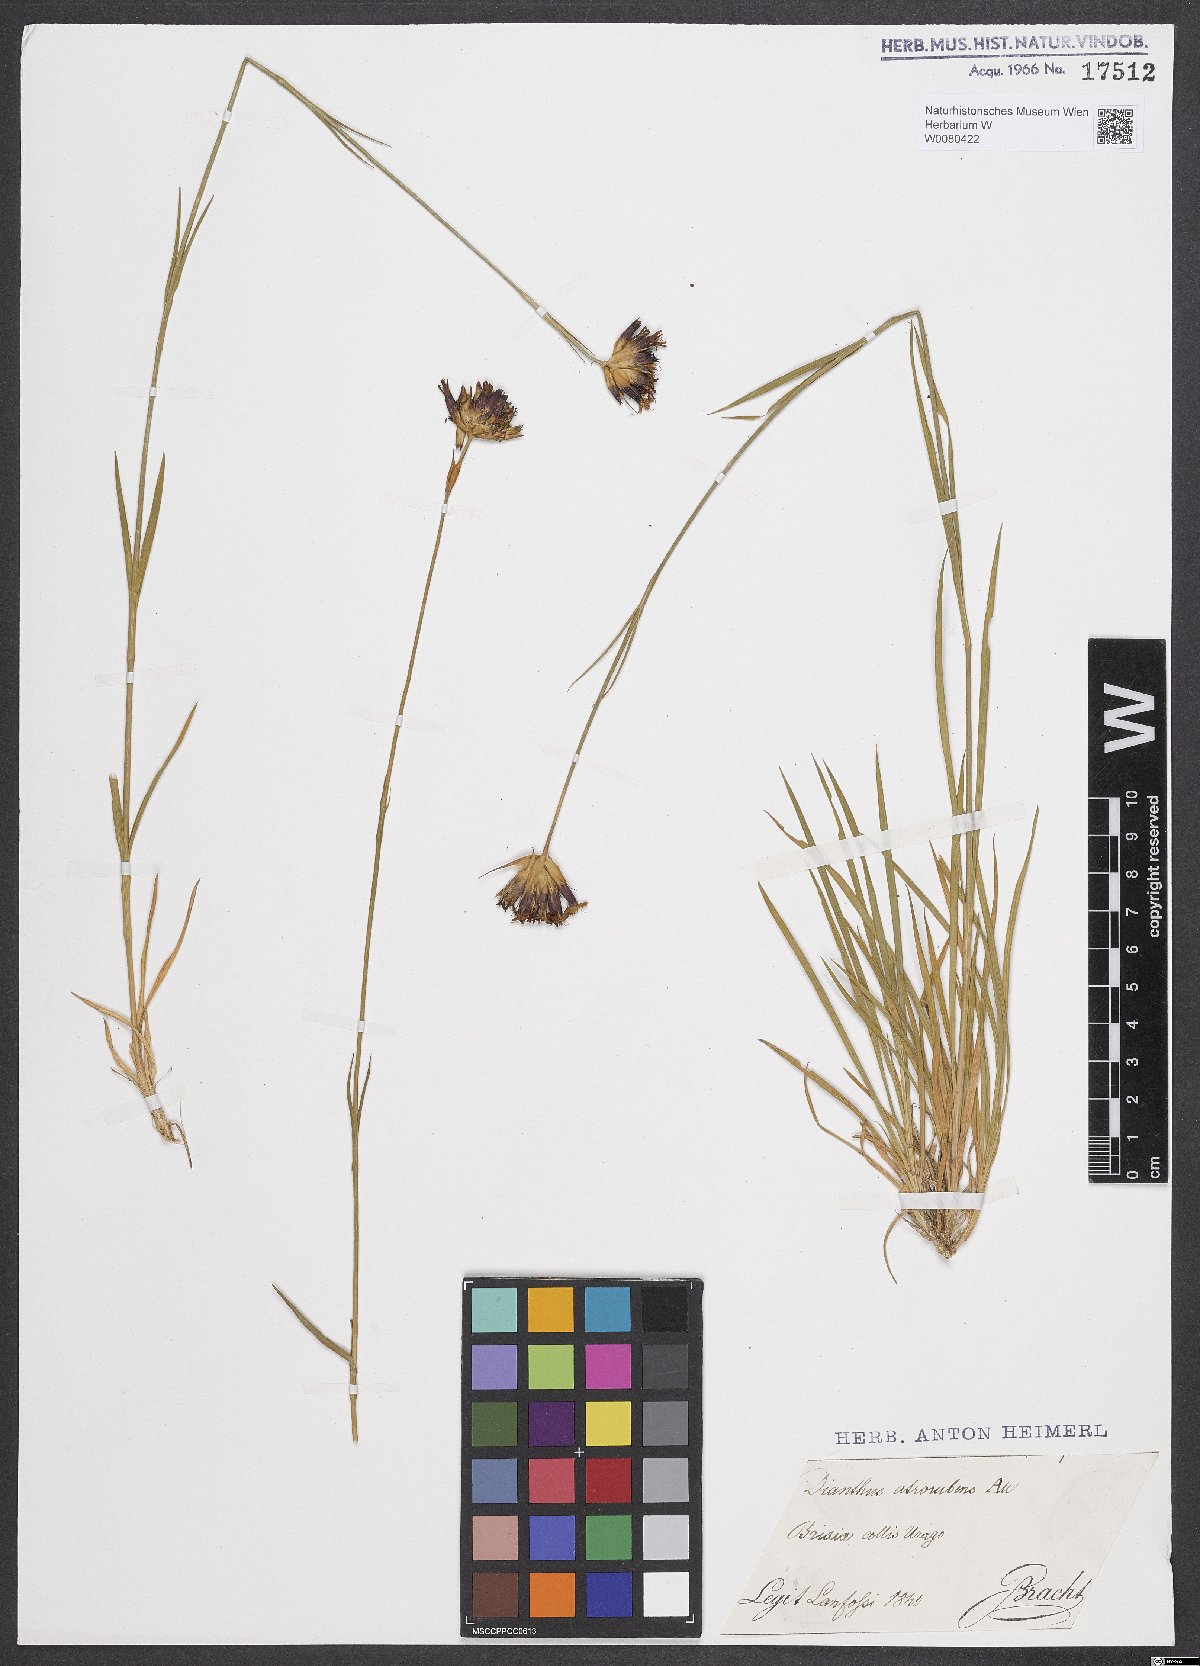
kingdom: Plantae
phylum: Tracheophyta
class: Magnoliopsida
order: Caryophyllales
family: Caryophyllaceae
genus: Dianthus
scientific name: Dianthus carthusianorum
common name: Carthusian pink
